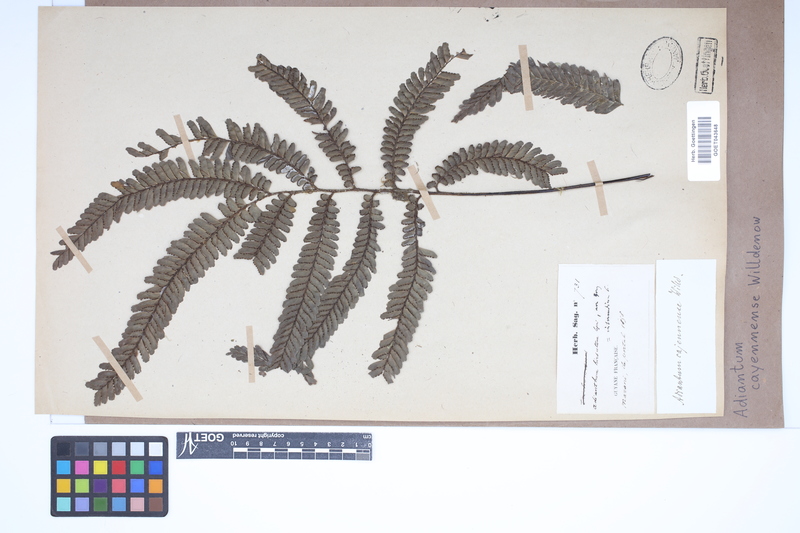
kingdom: Plantae
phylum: Tracheophyta
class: Polypodiopsida
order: Polypodiales
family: Pteridaceae
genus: Adiantum
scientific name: Adiantum cajennense
